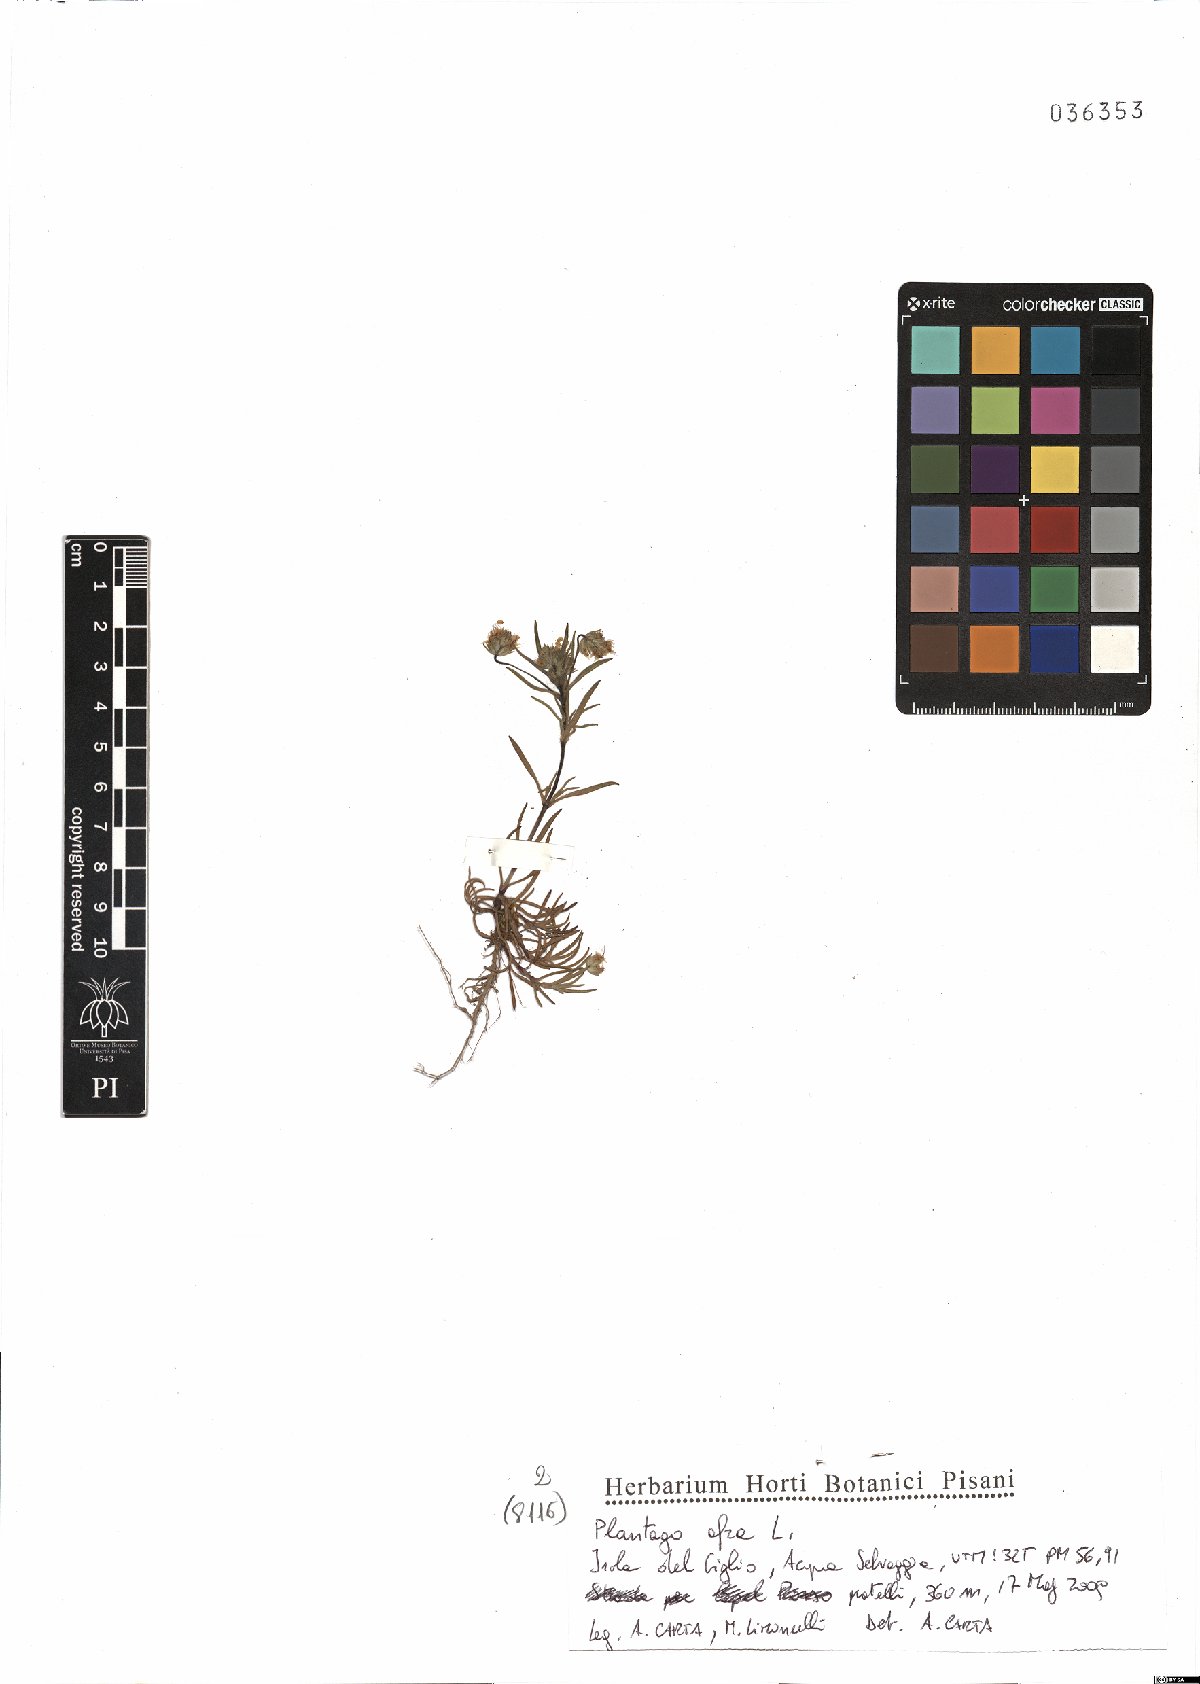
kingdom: Plantae
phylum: Tracheophyta
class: Magnoliopsida
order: Lamiales
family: Plantaginaceae
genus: Plantago
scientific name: Plantago afra
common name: Glandular plantain
